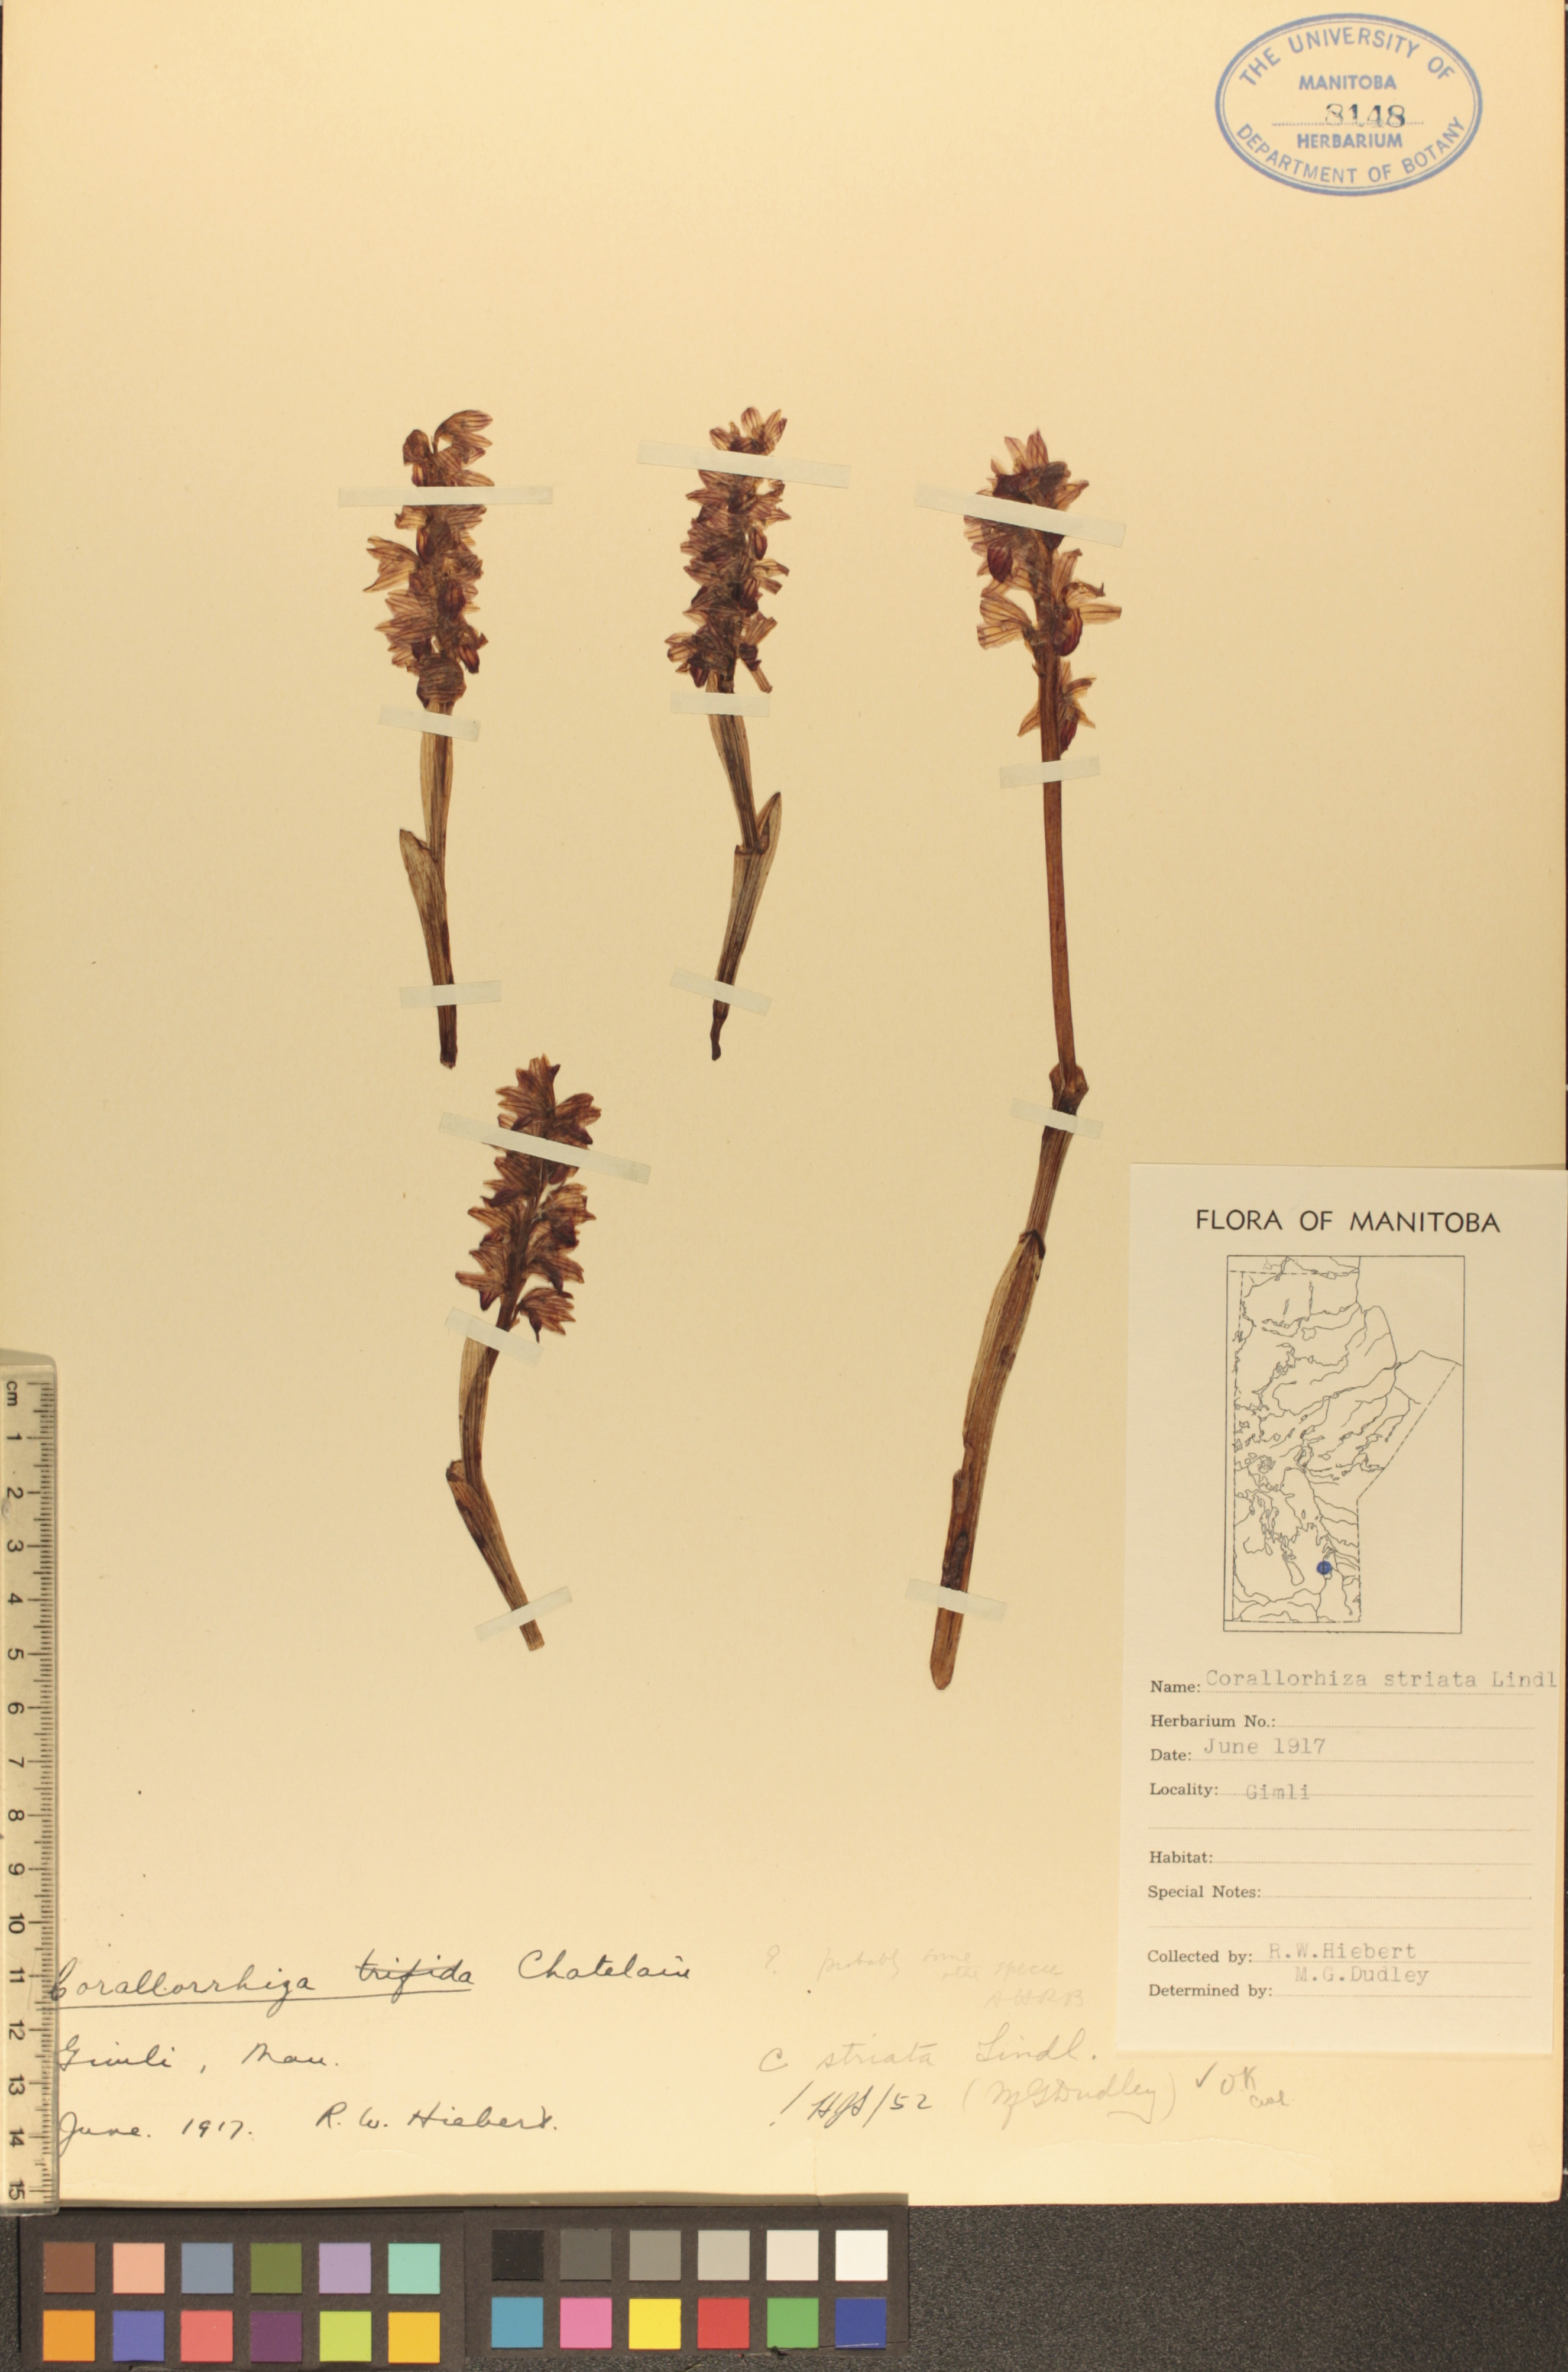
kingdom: Plantae
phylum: Tracheophyta
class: Liliopsida
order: Asparagales
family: Orchidaceae
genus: Corallorhiza
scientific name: Corallorhiza striata
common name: Hooded coralroot
